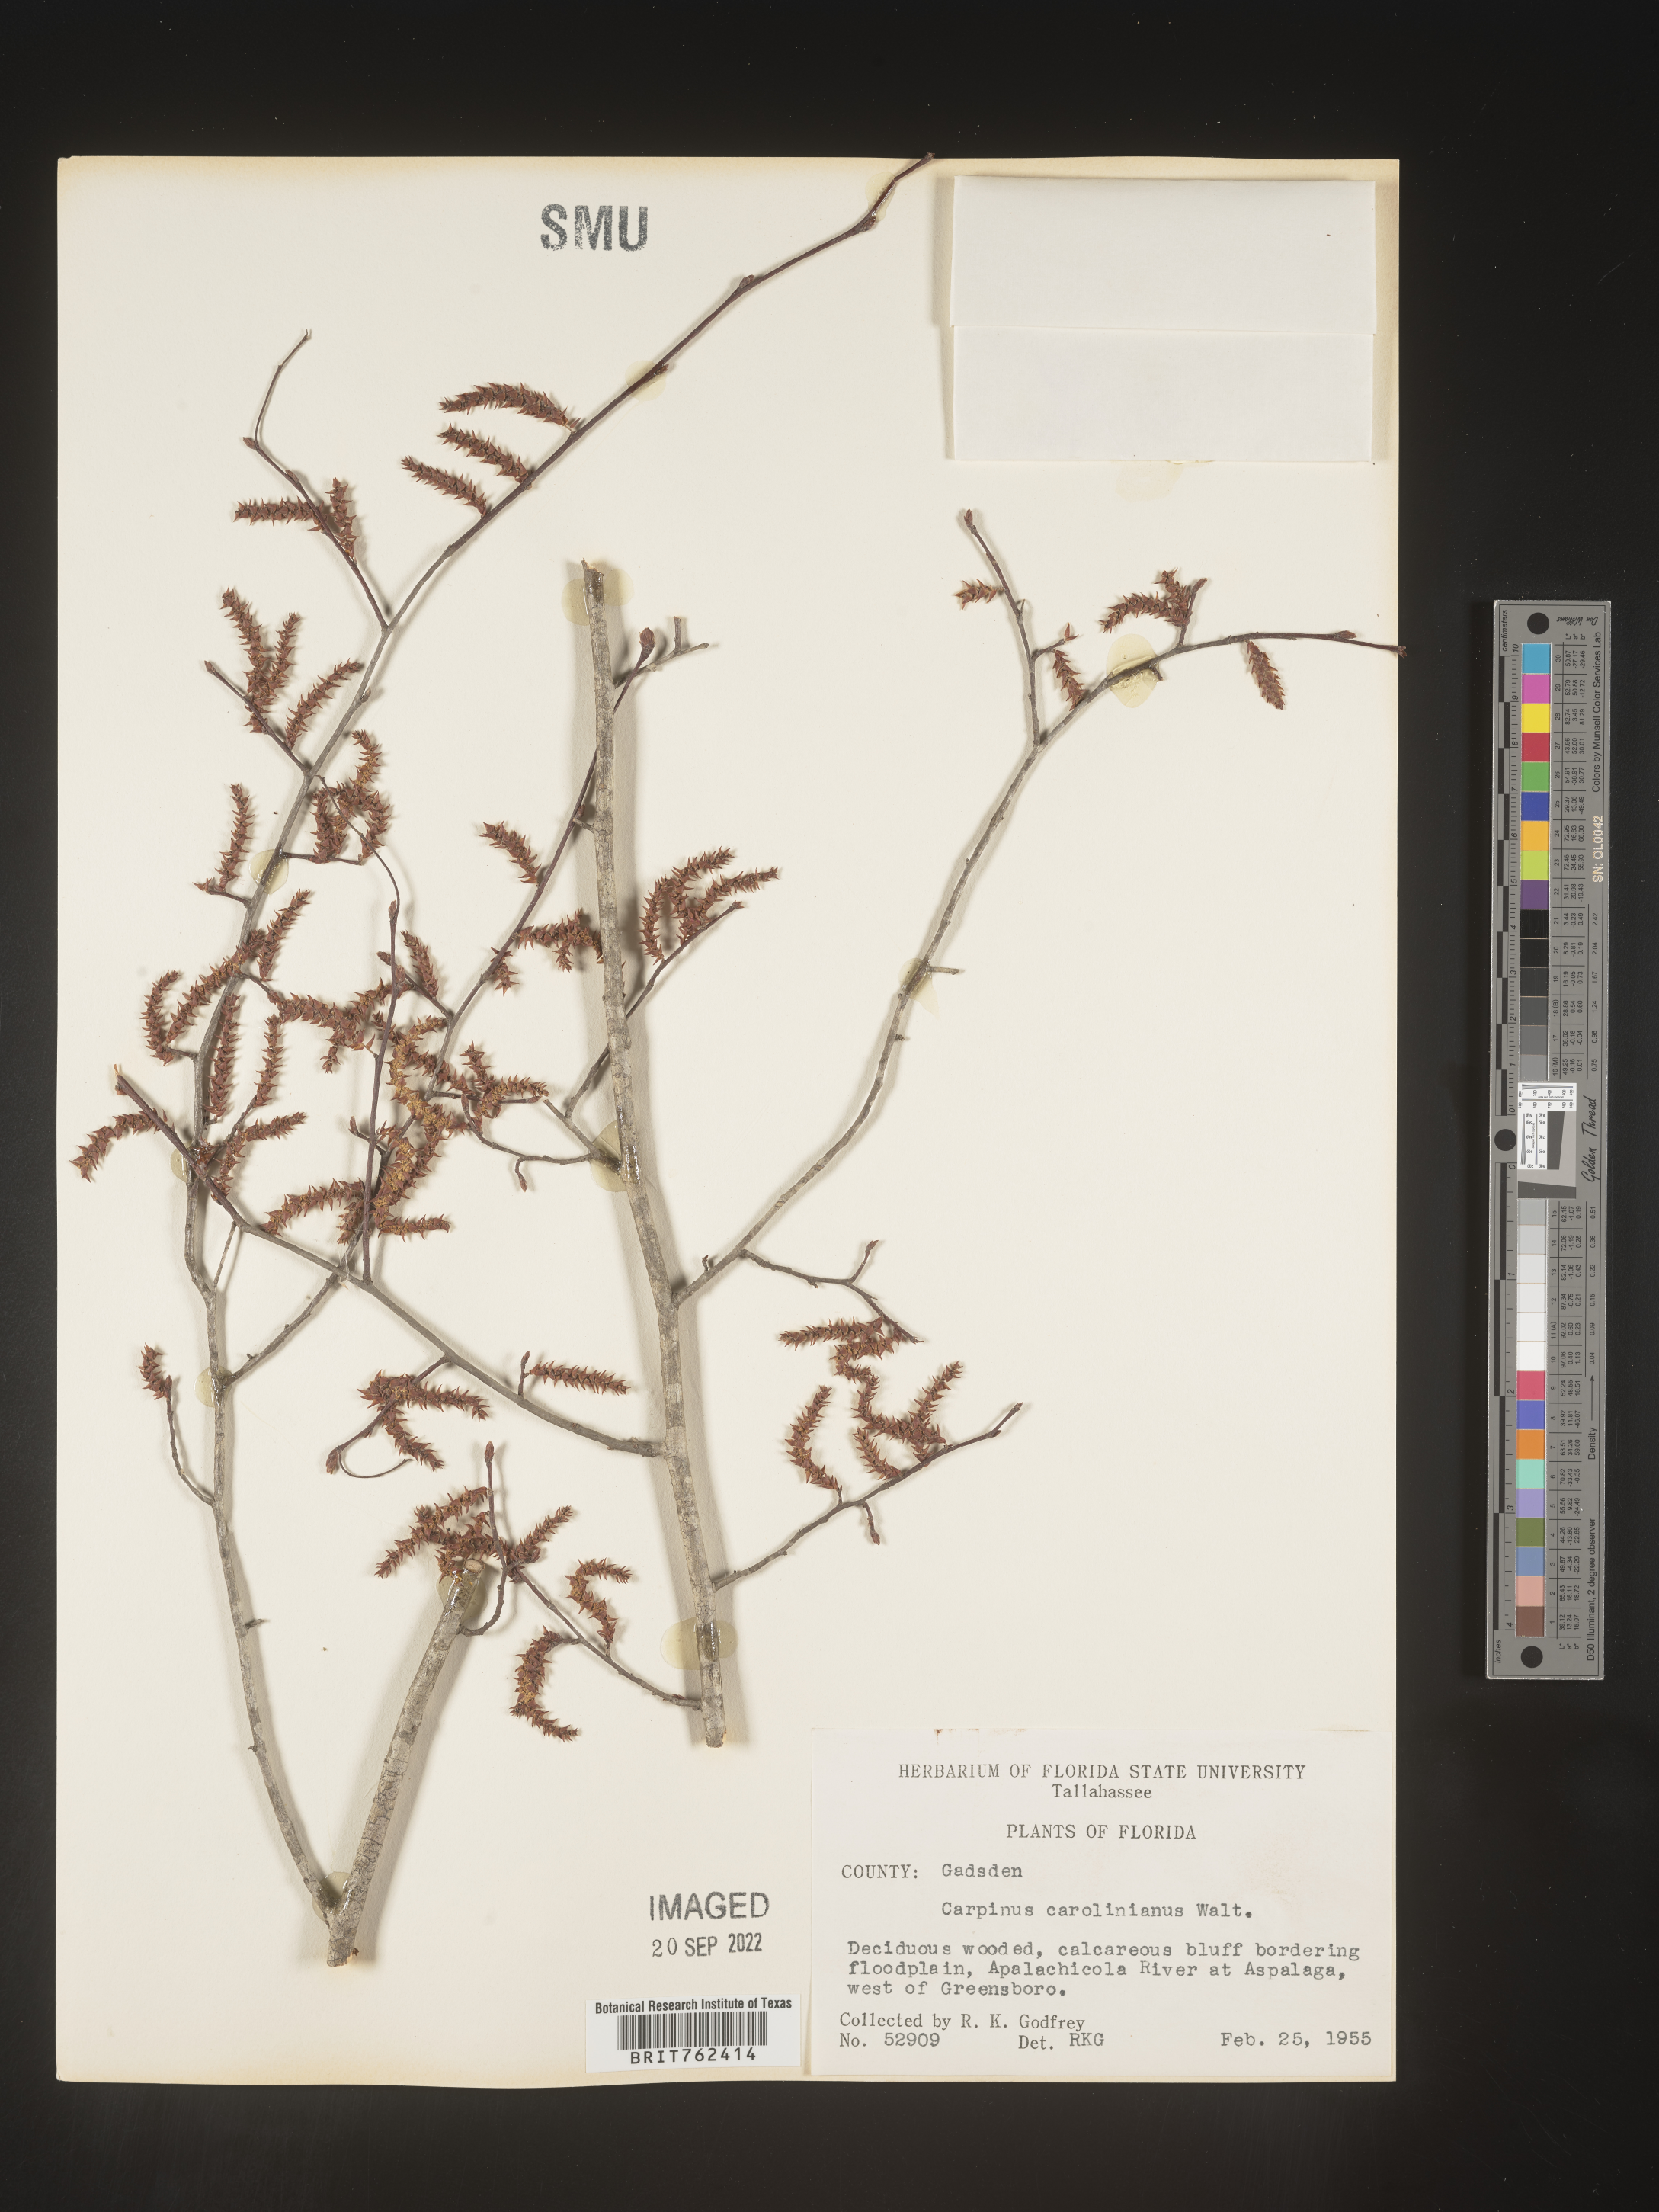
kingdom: Plantae
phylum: Tracheophyta
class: Magnoliopsida
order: Fagales
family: Betulaceae
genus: Carpinus
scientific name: Carpinus caroliniana
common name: American hornbeam
